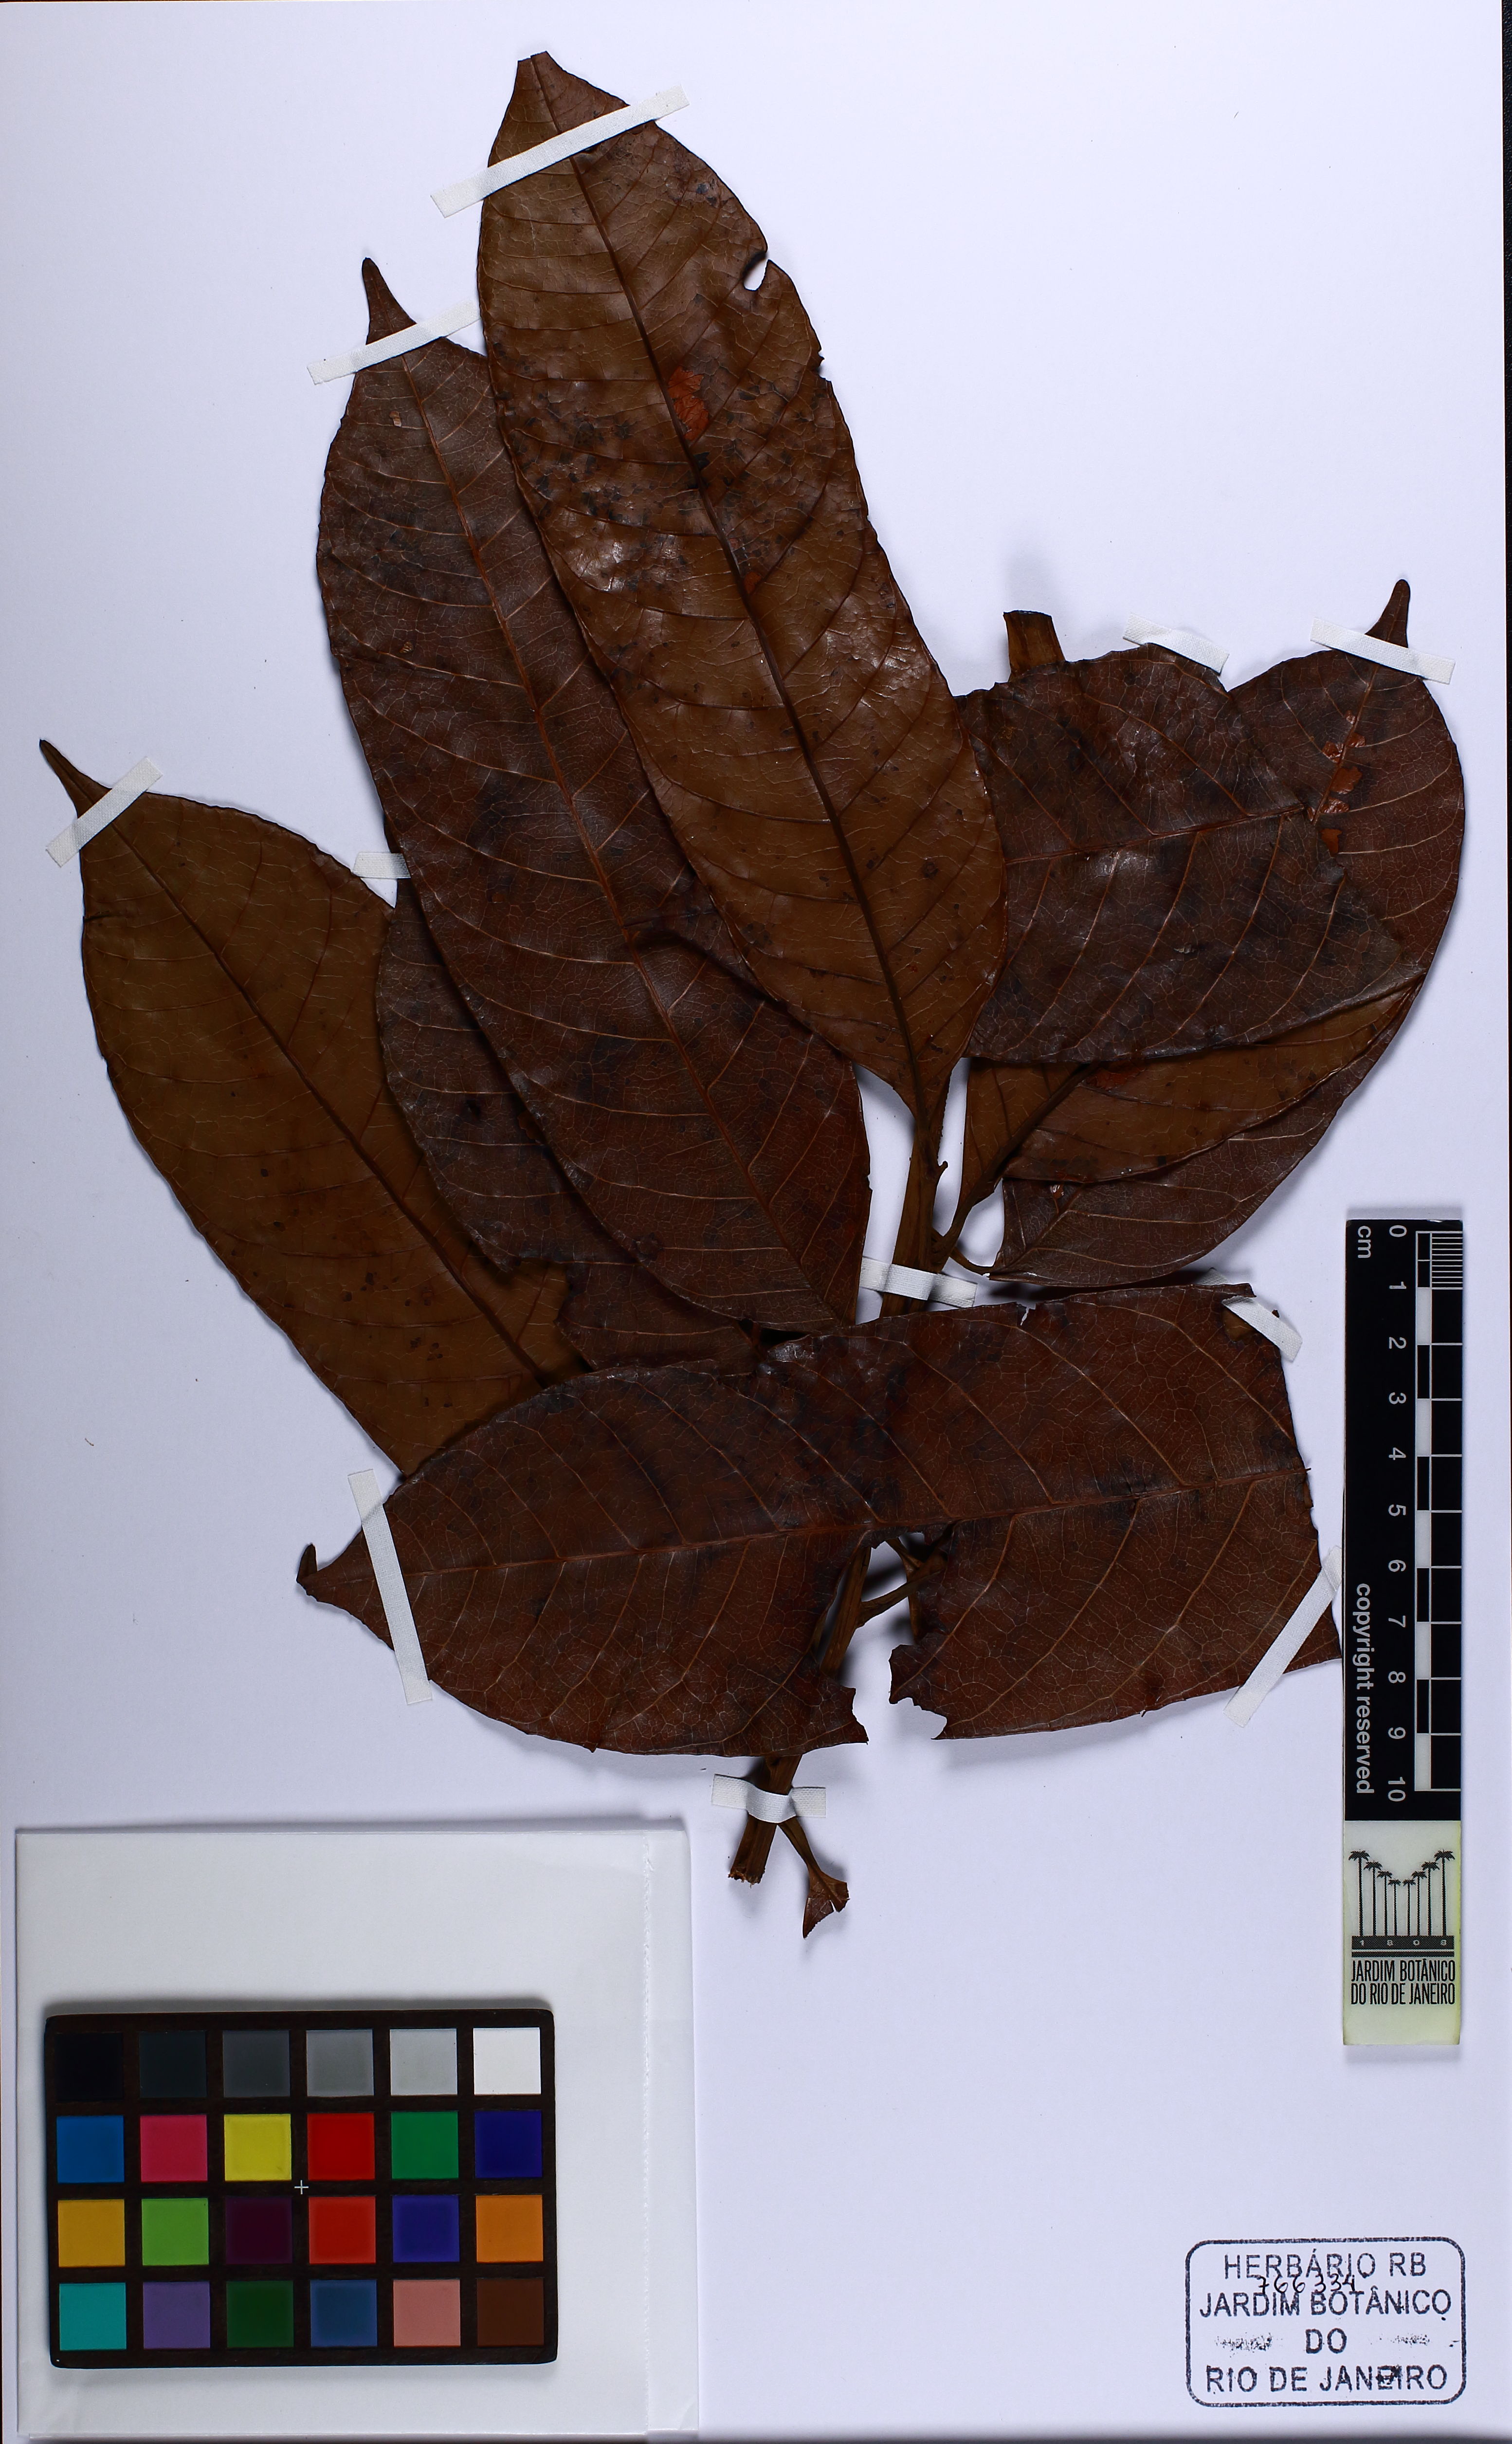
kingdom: Plantae
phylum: Tracheophyta
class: Magnoliopsida
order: Sapindales
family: Anacardiaceae
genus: Thyrsodium
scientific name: Thyrsodium puberulum
